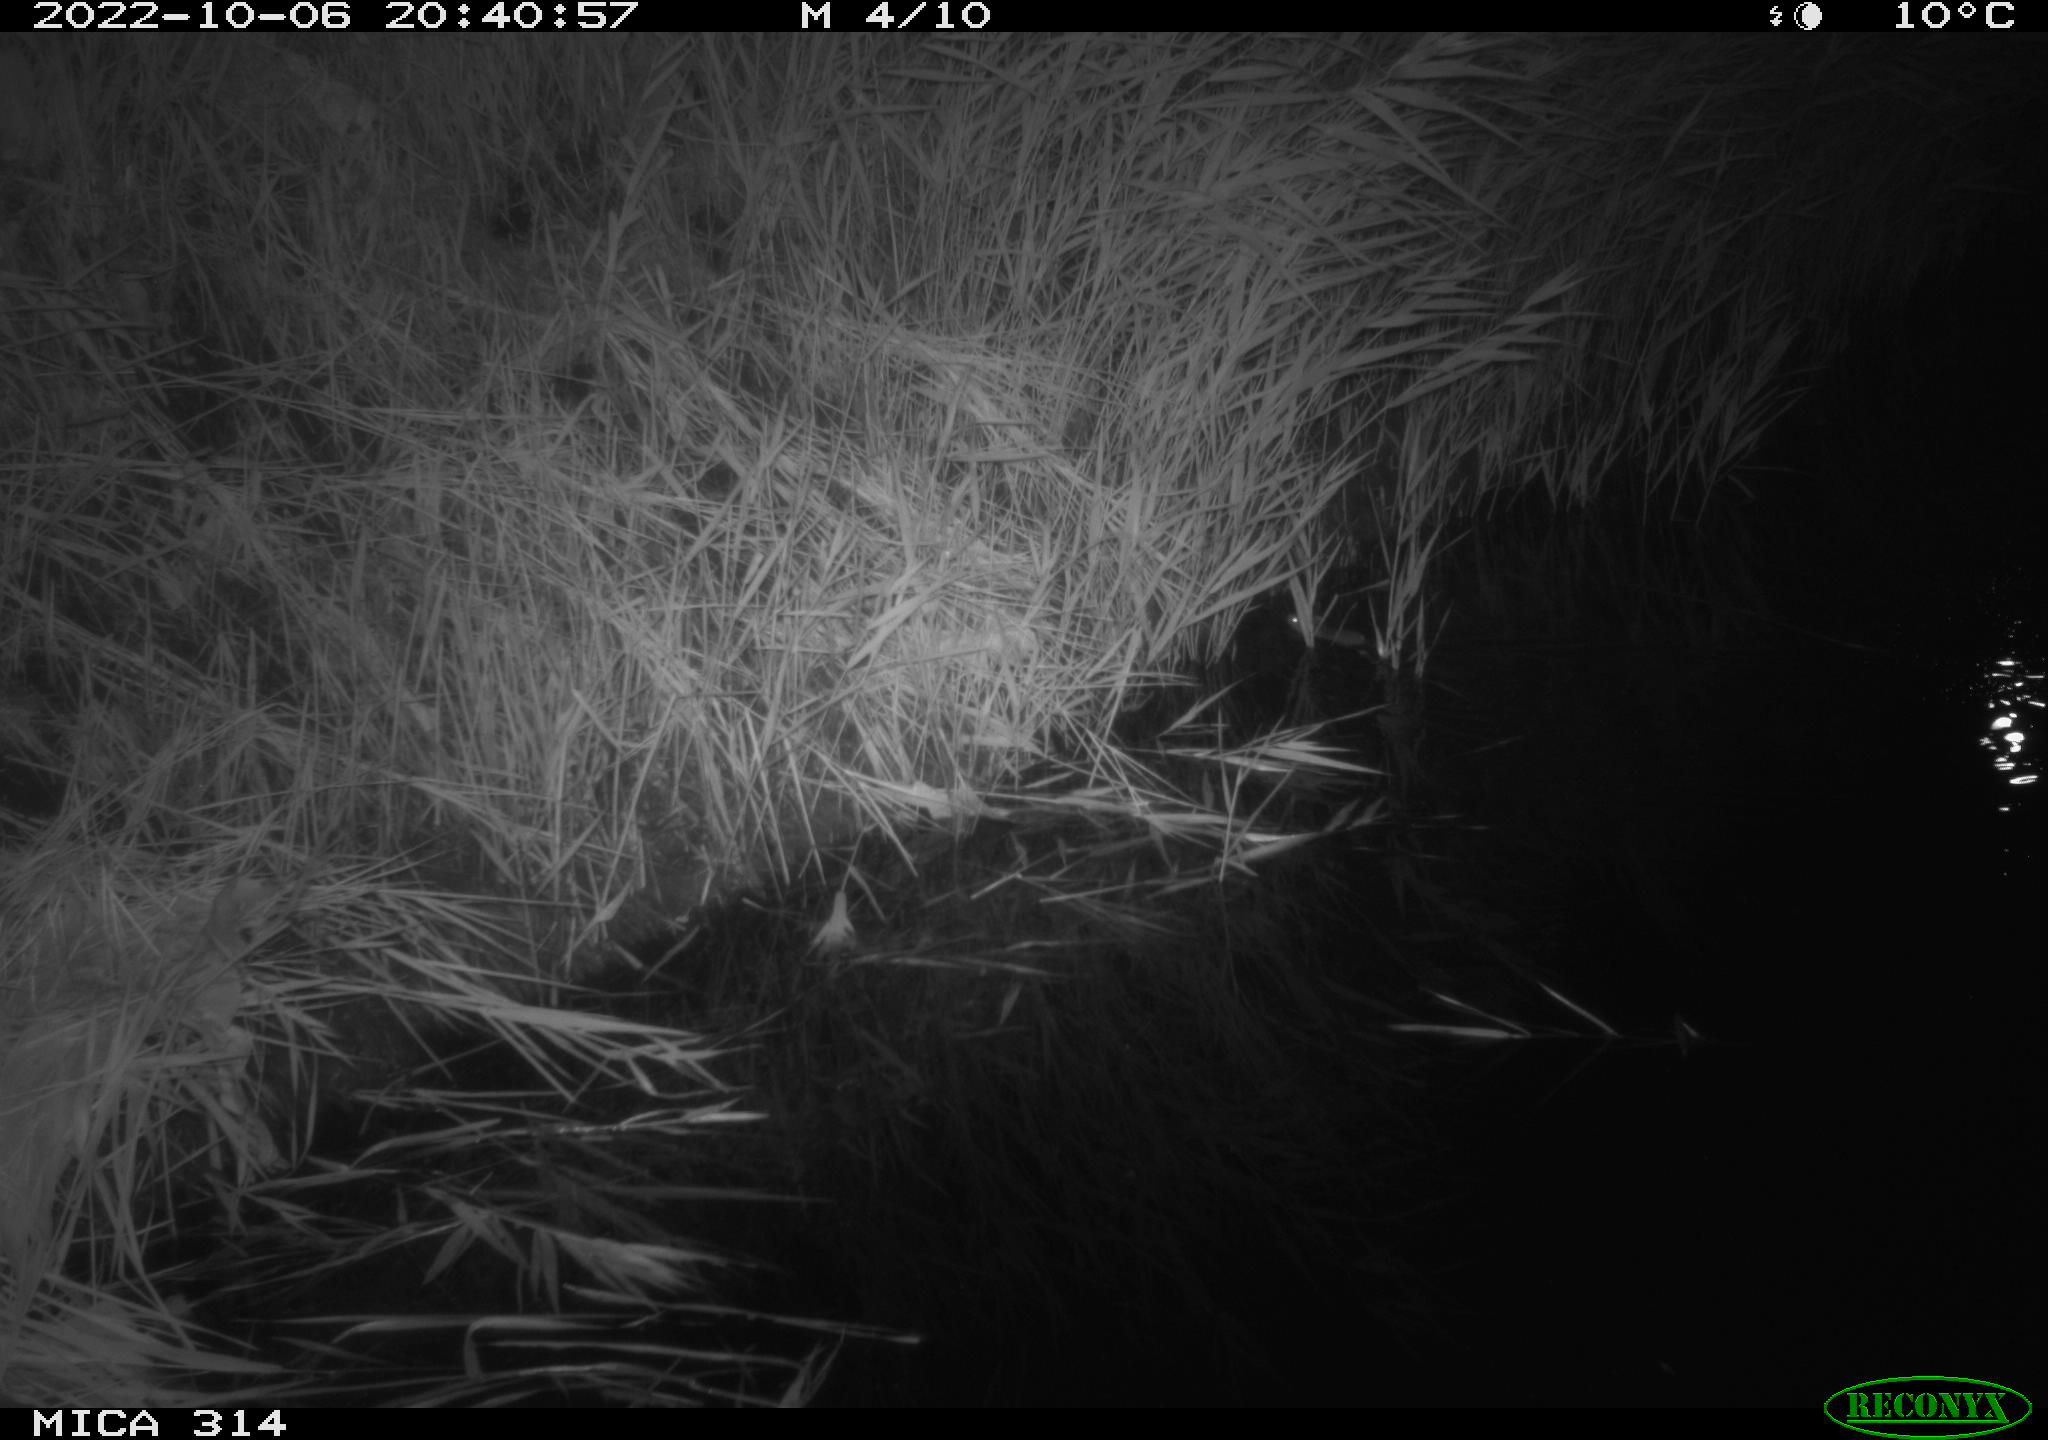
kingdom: Animalia
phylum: Chordata
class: Mammalia
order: Rodentia
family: Muridae
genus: Rattus
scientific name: Rattus norvegicus
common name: Brown rat
